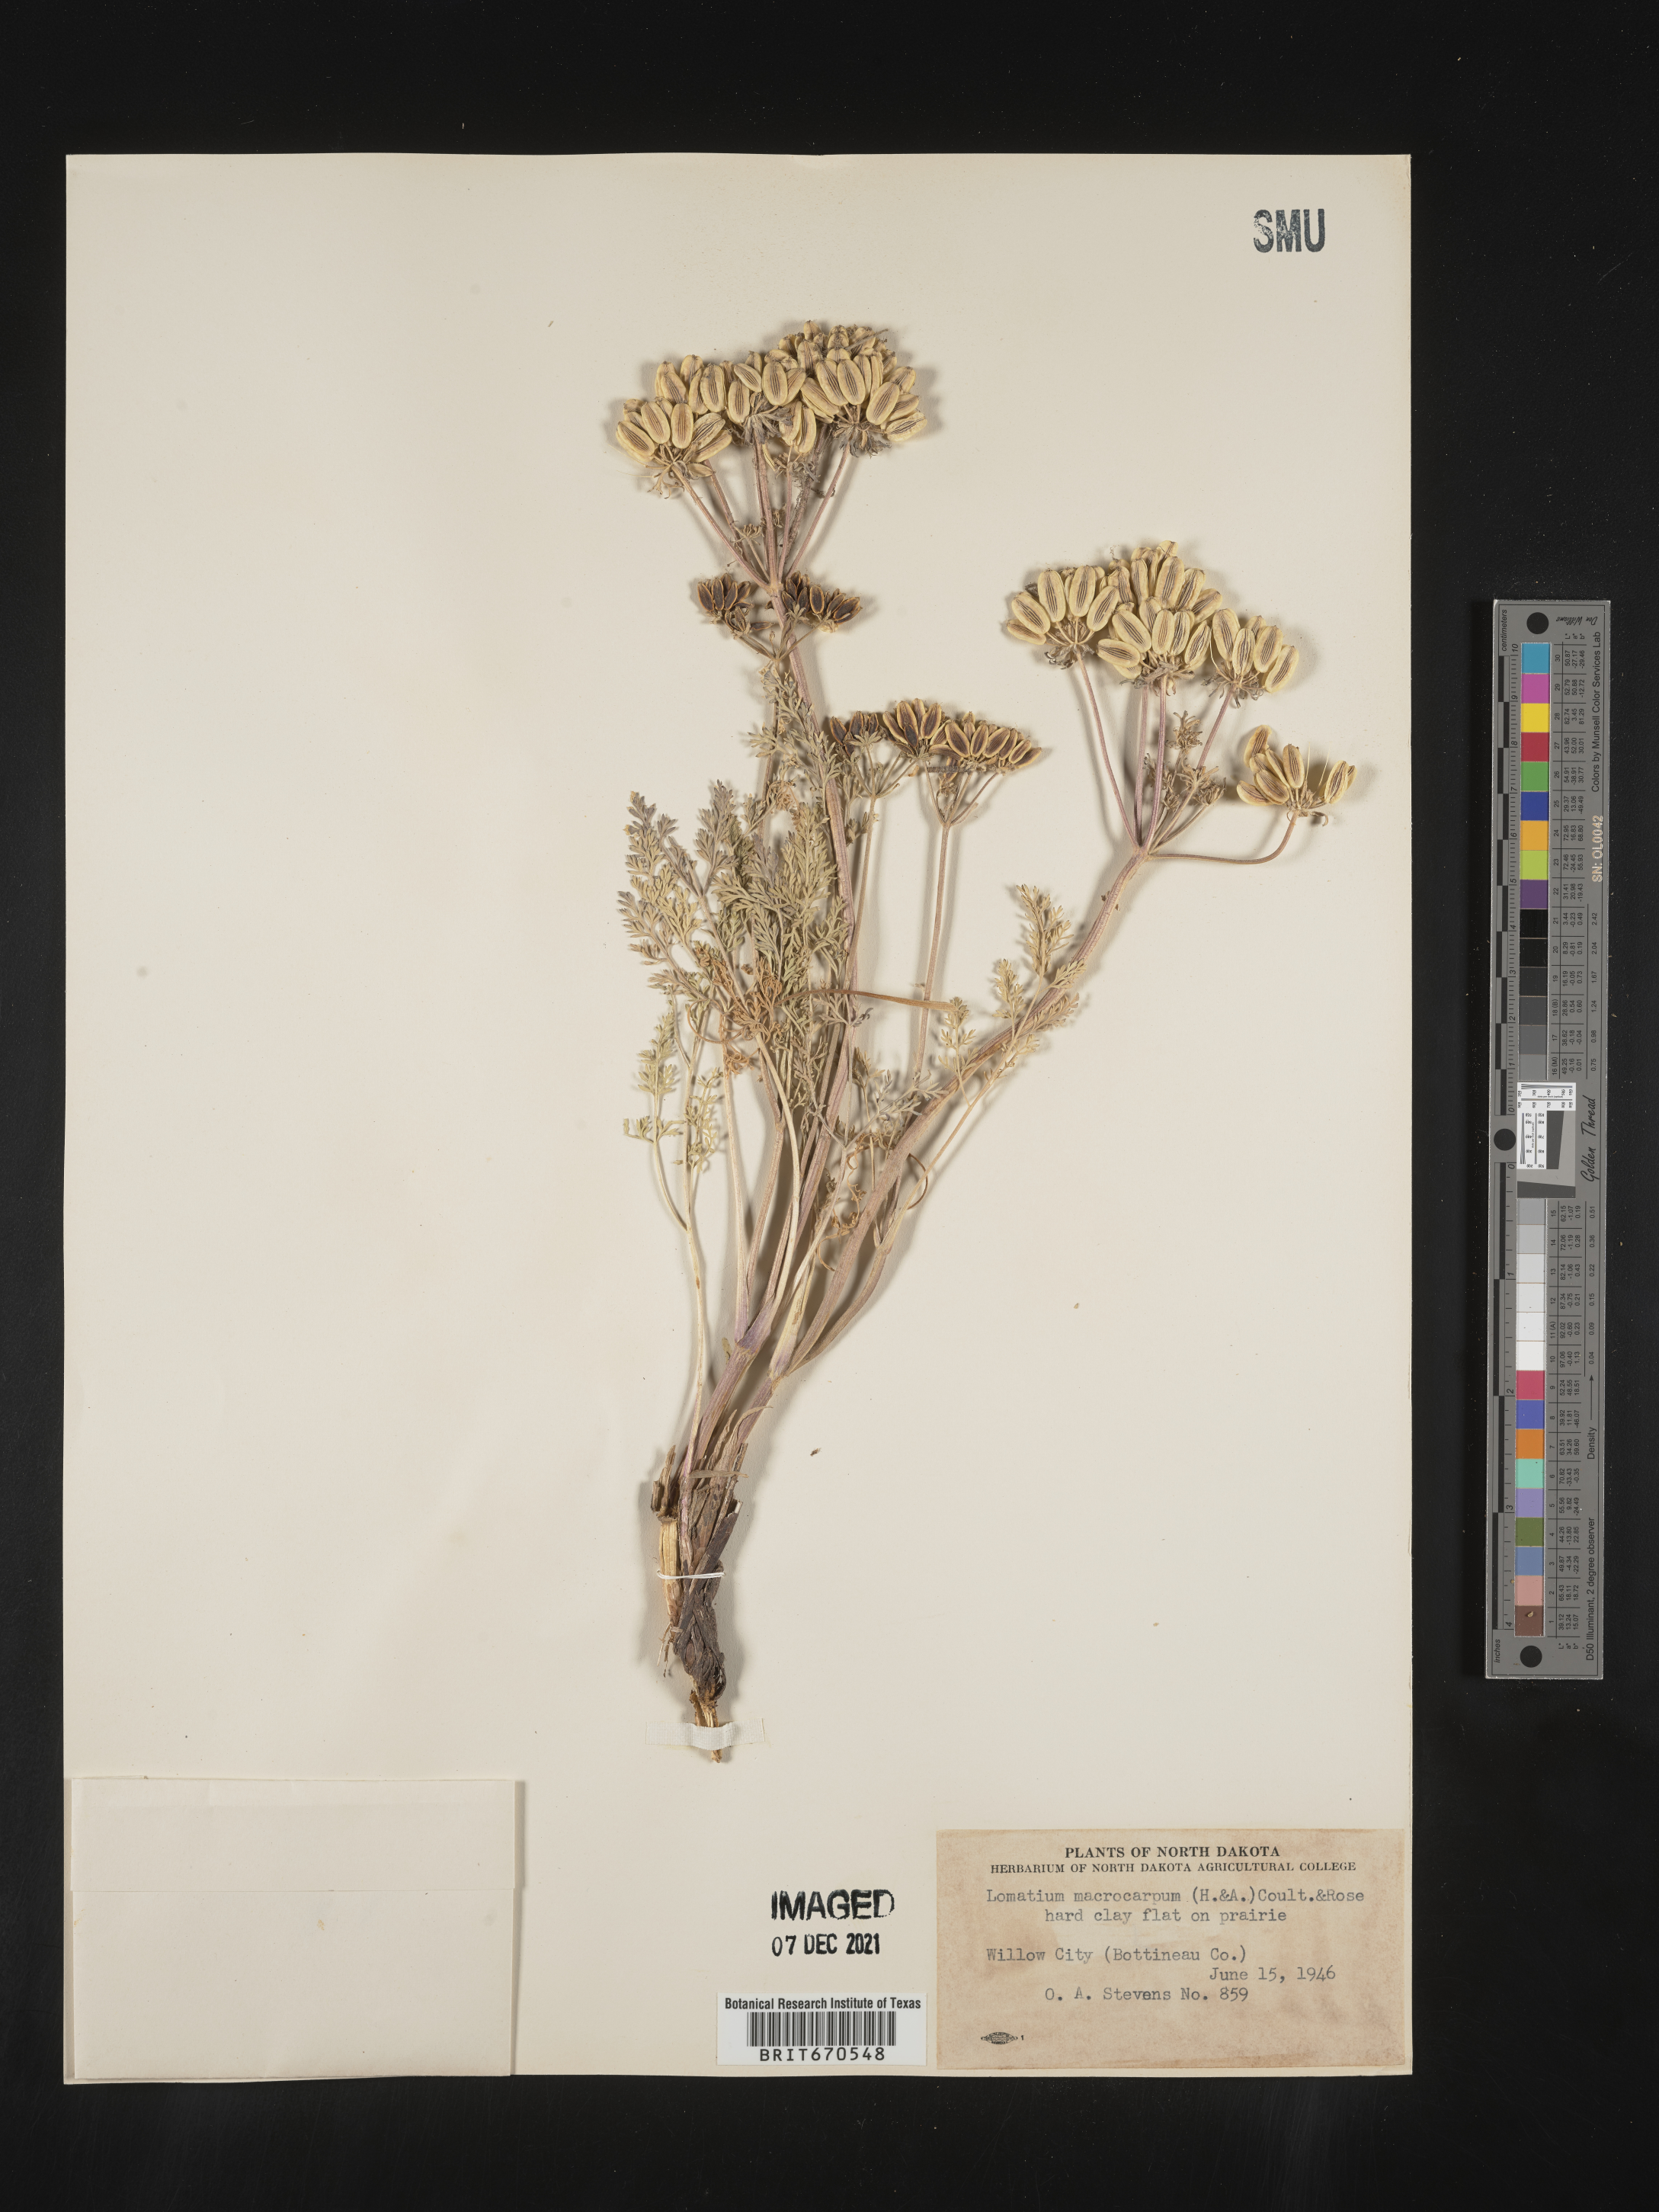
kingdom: Plantae
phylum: Tracheophyta
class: Magnoliopsida
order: Apiales
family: Apiaceae
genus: Lomatium
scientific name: Lomatium macrocarpum
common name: Big-seed biscuitroot
